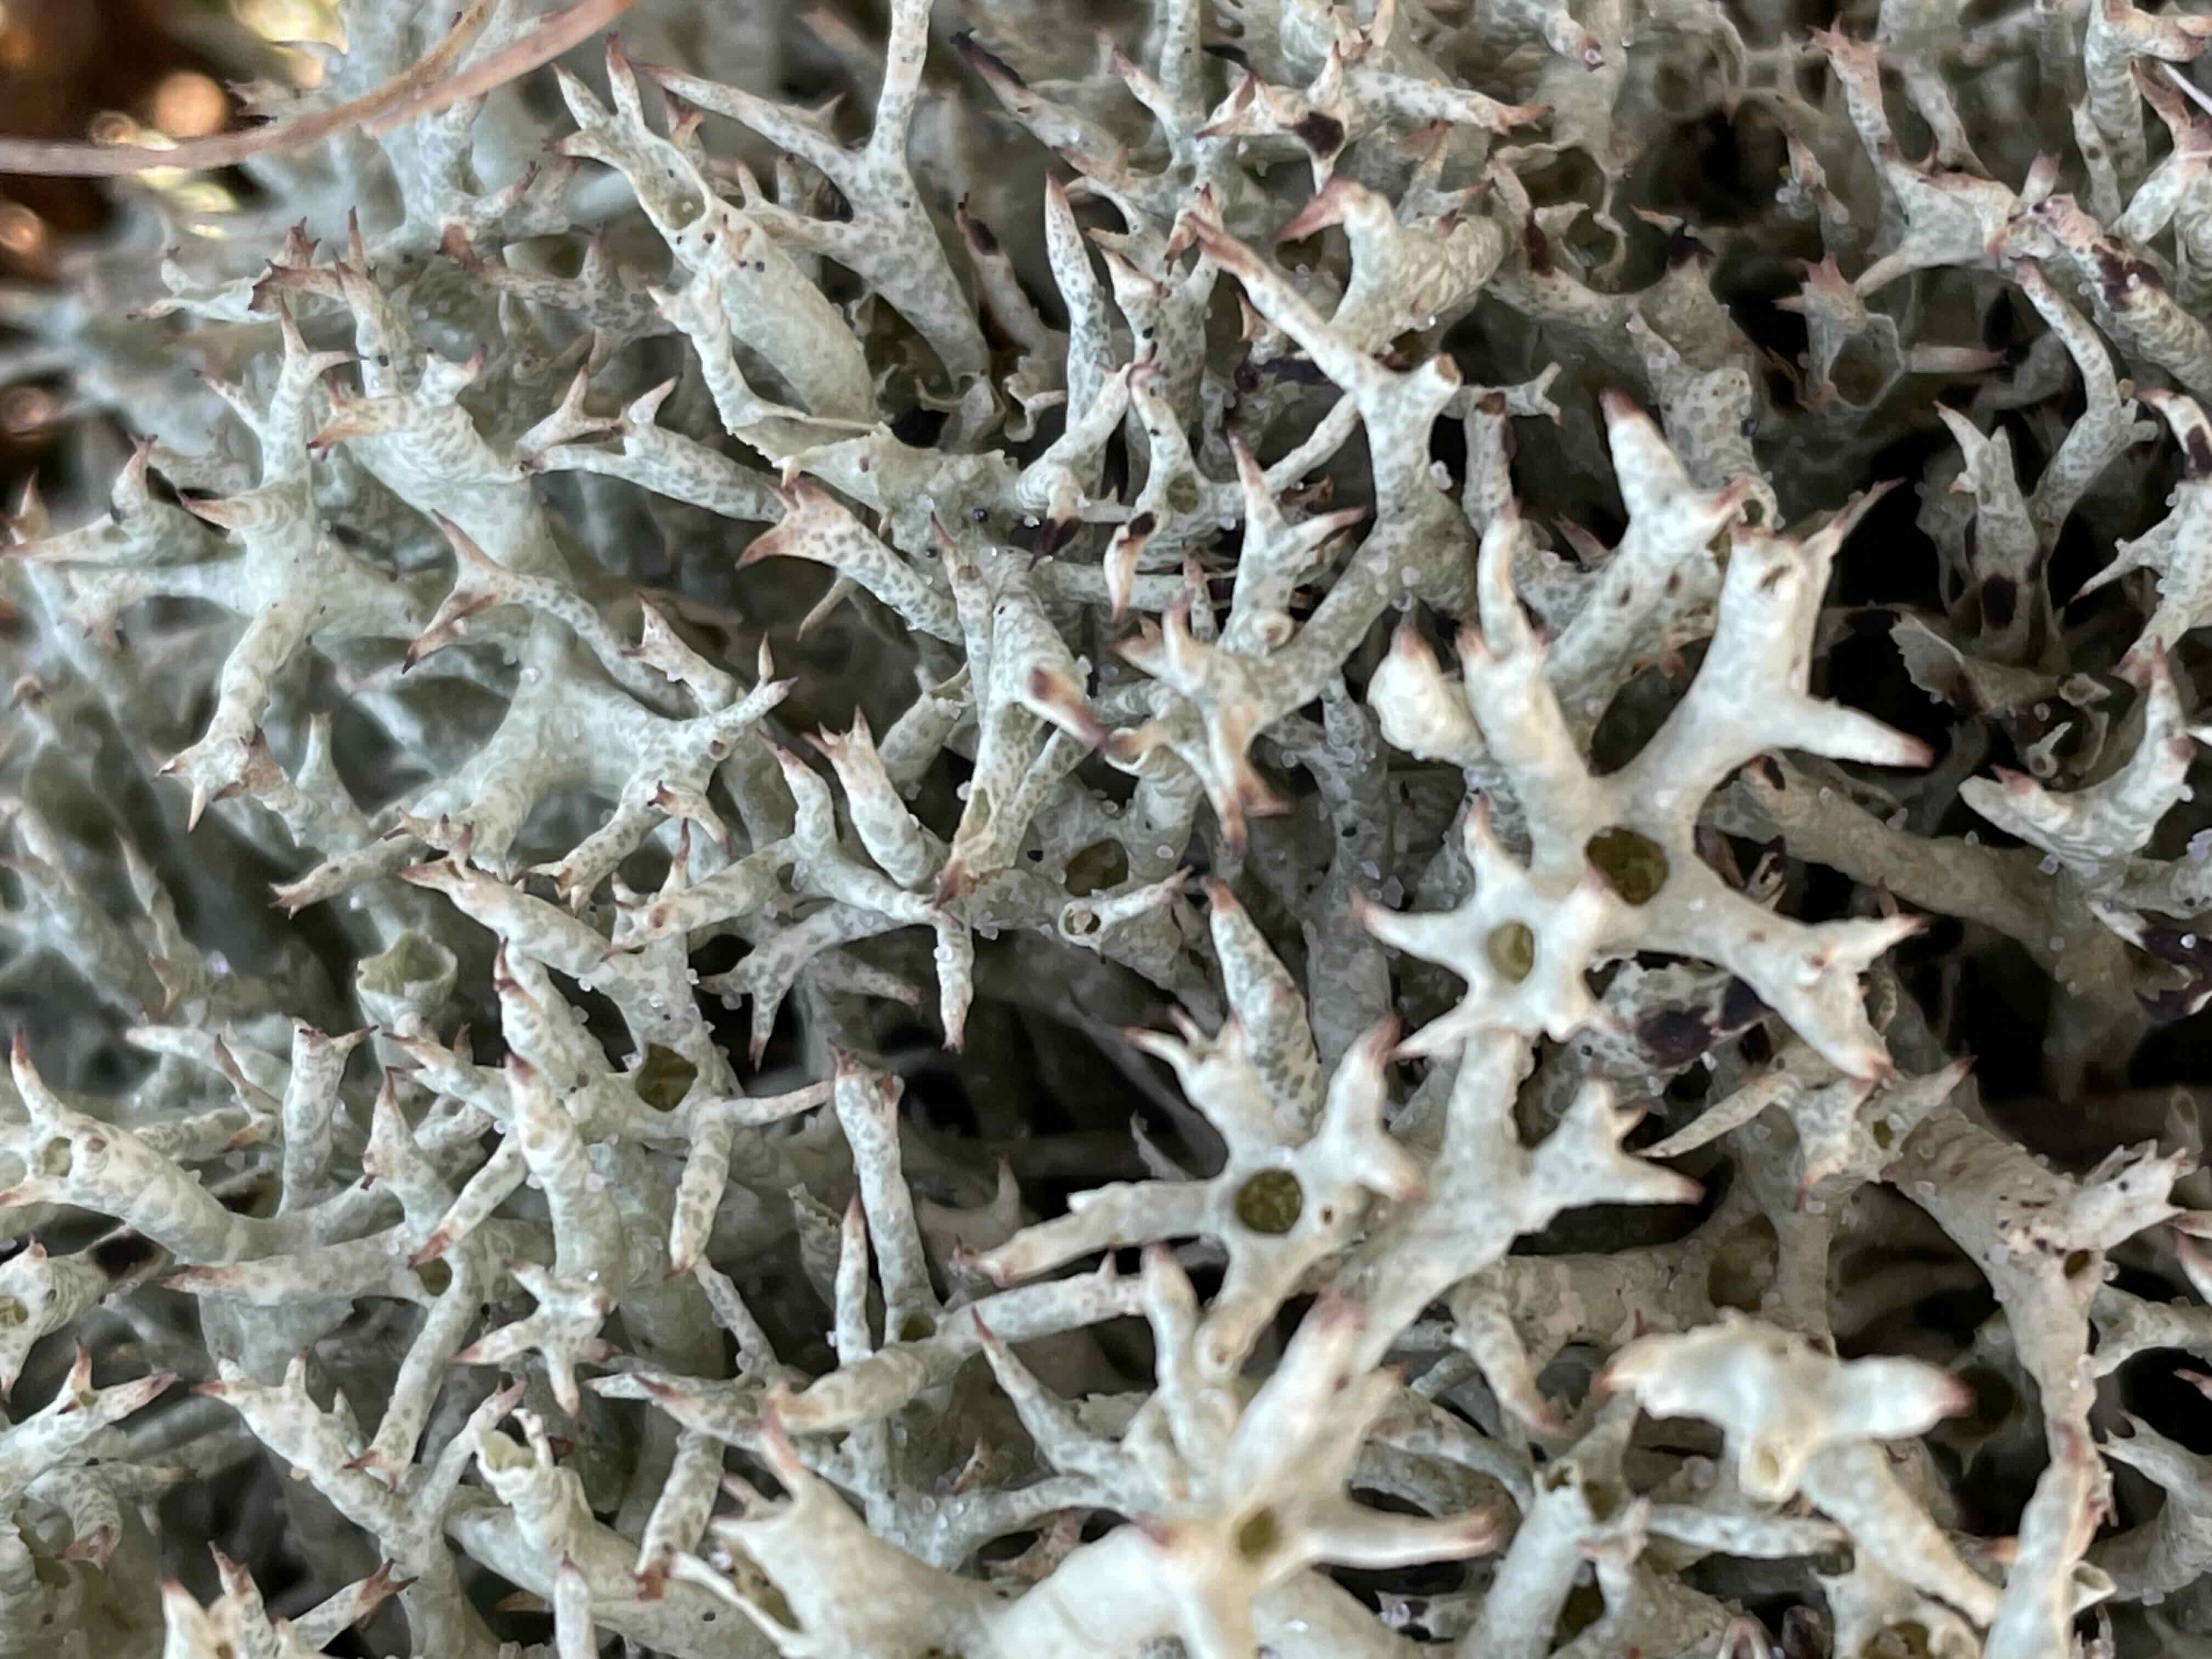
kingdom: Fungi
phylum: Ascomycota
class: Lecanoromycetes
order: Lecanorales
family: Cladoniaceae
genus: Cladonia
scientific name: Cladonia uncialis
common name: pigget bægerlav
